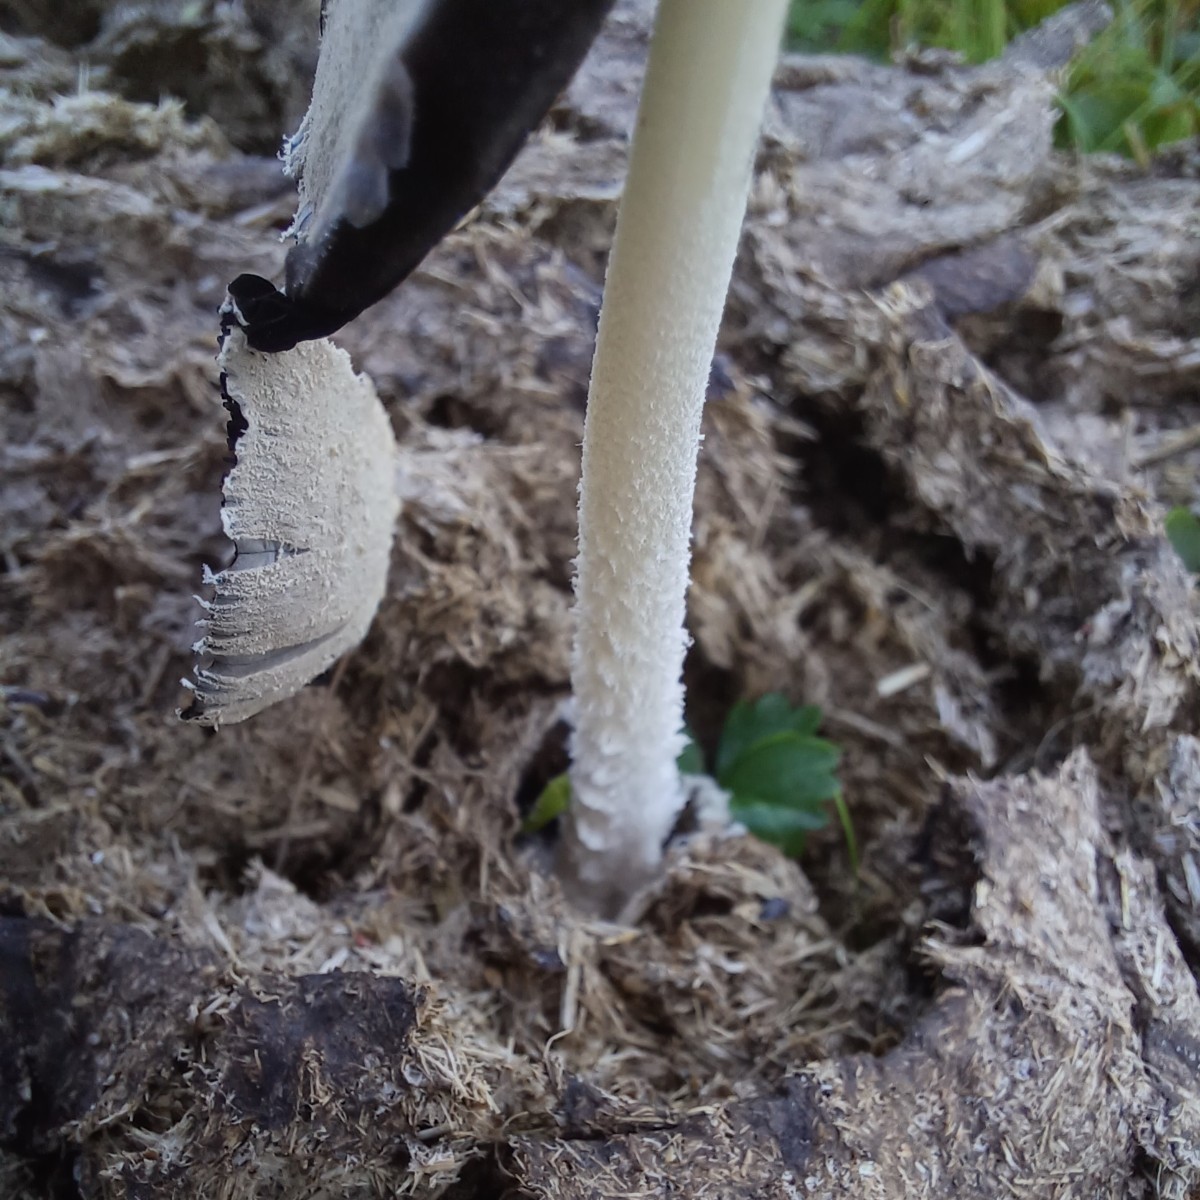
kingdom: Fungi
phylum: Basidiomycota
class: Agaricomycetes
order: Agaricales
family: Psathyrellaceae
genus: Coprinopsis
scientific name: Coprinopsis
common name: blækhat
